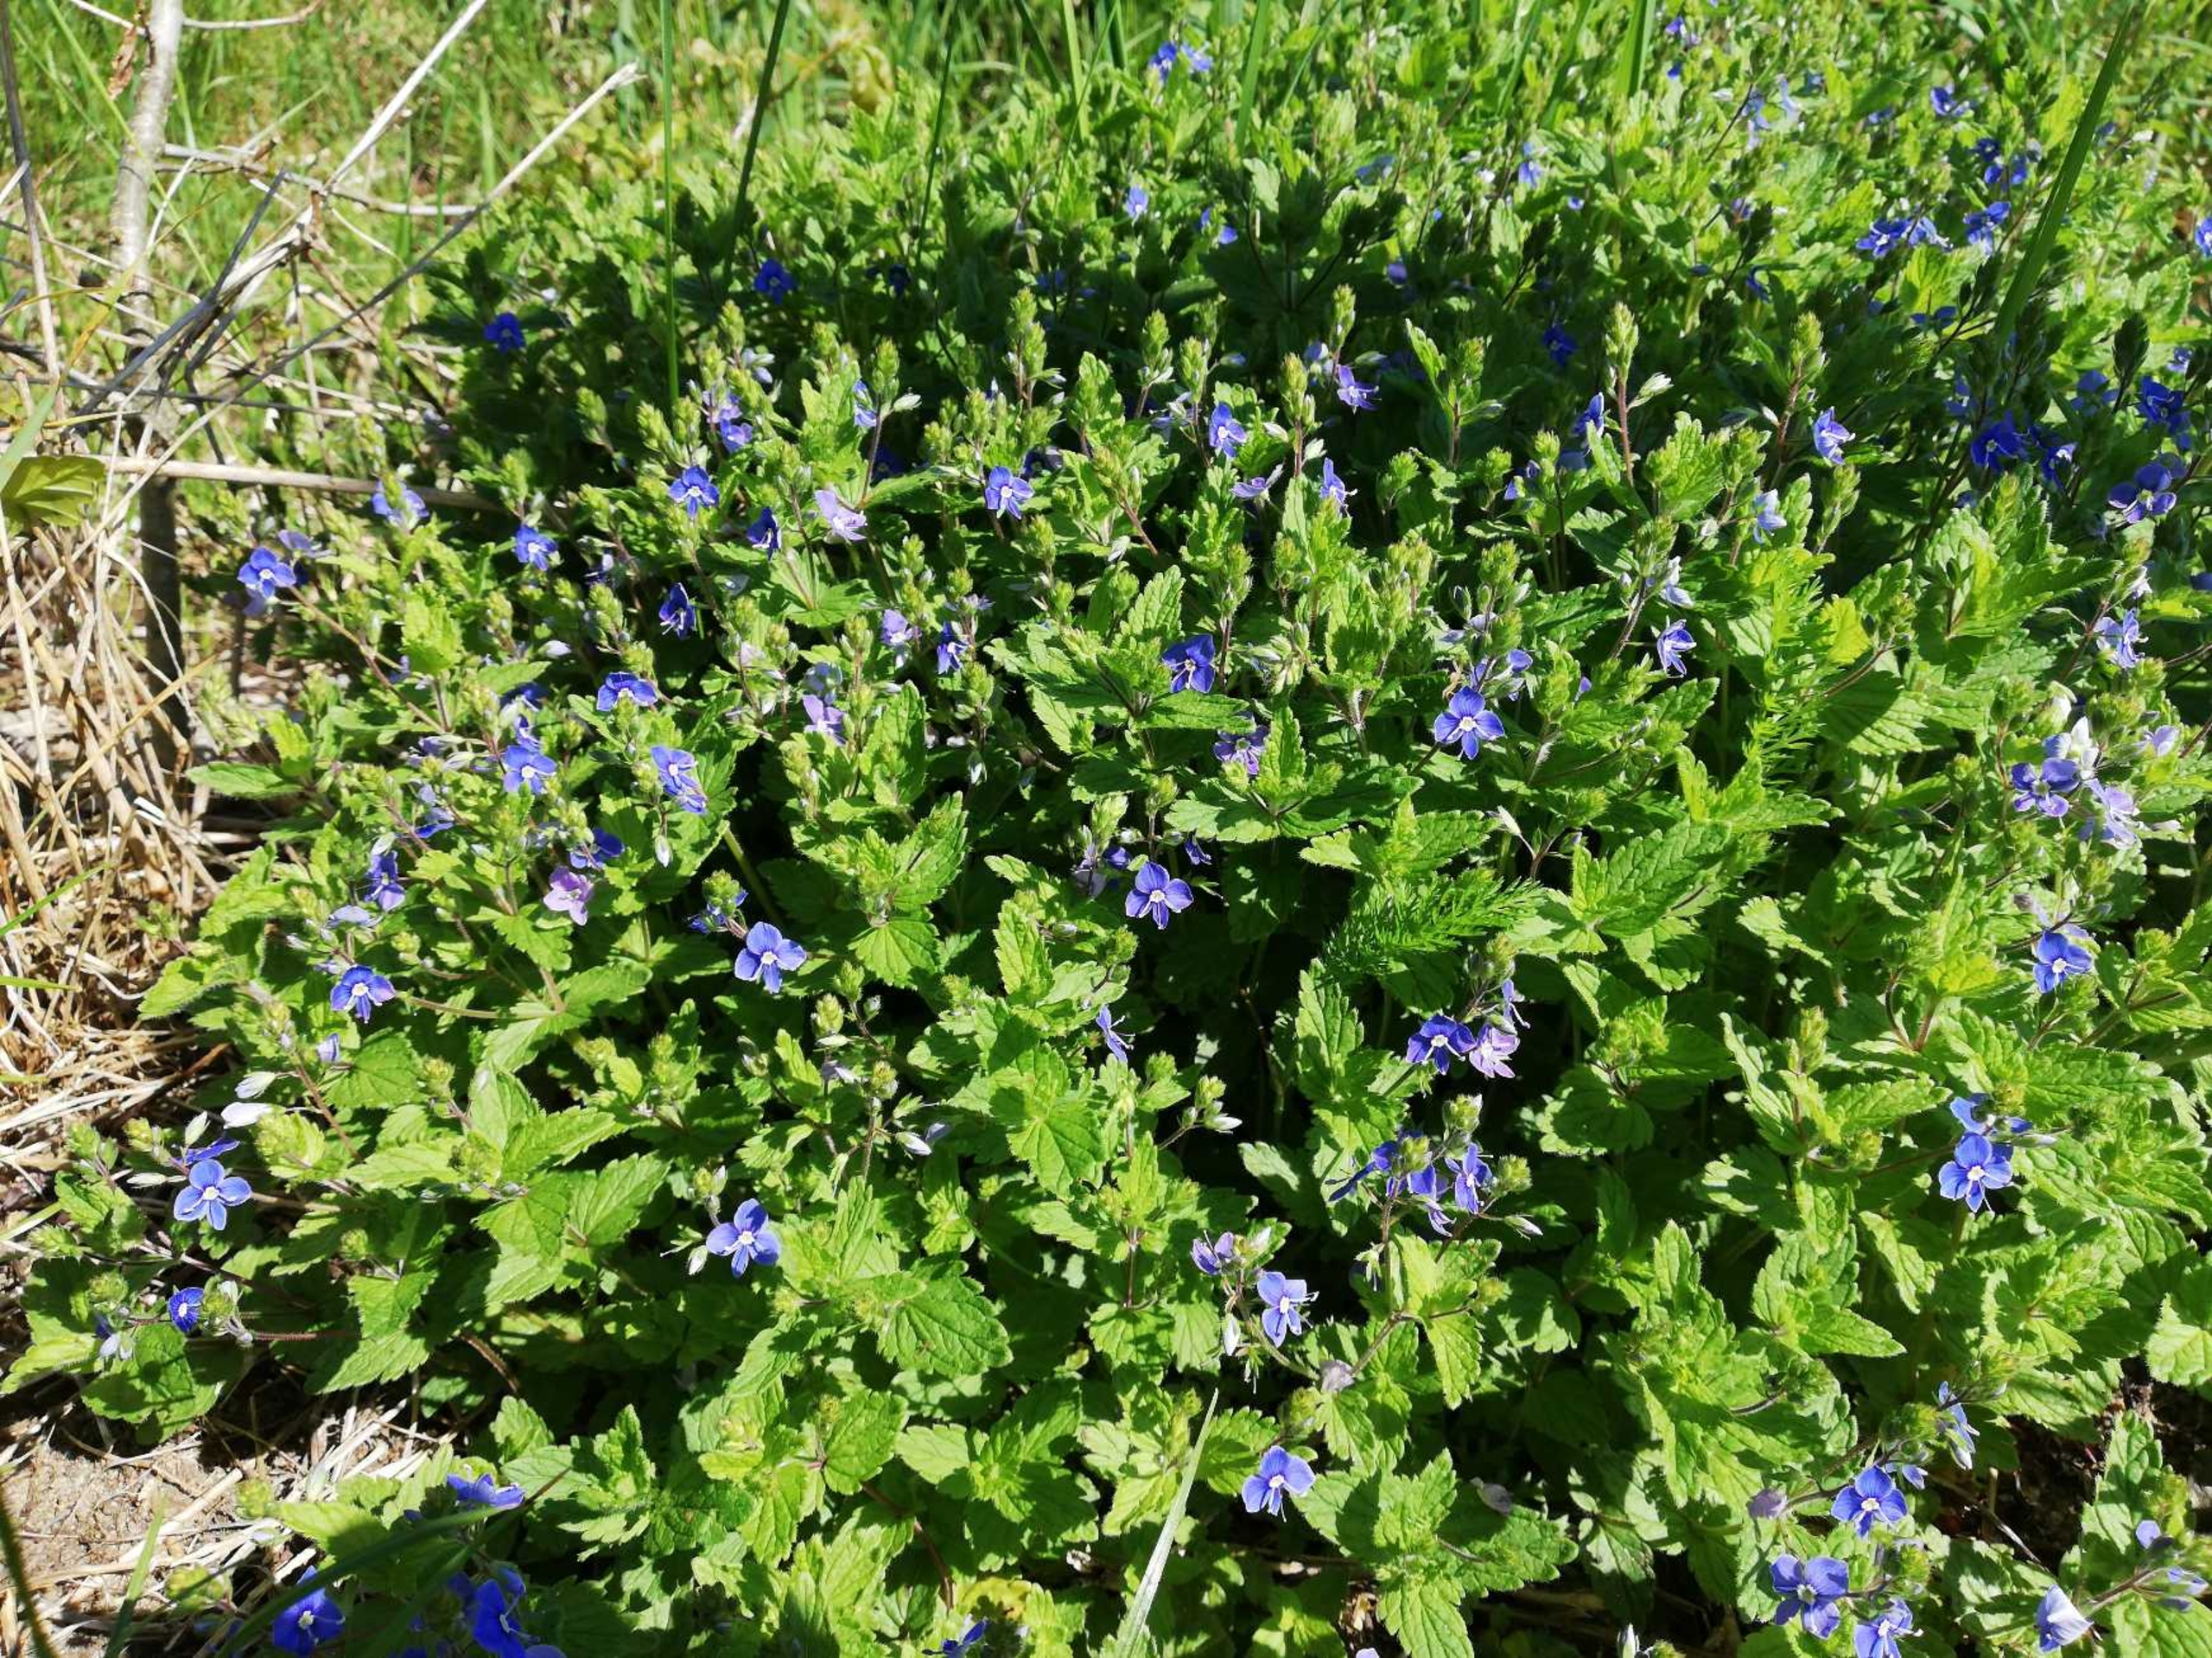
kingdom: Plantae
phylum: Tracheophyta
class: Magnoliopsida
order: Lamiales
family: Plantaginaceae
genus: Veronica
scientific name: Veronica chamaedrys
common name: Tveskægget ærenpris
